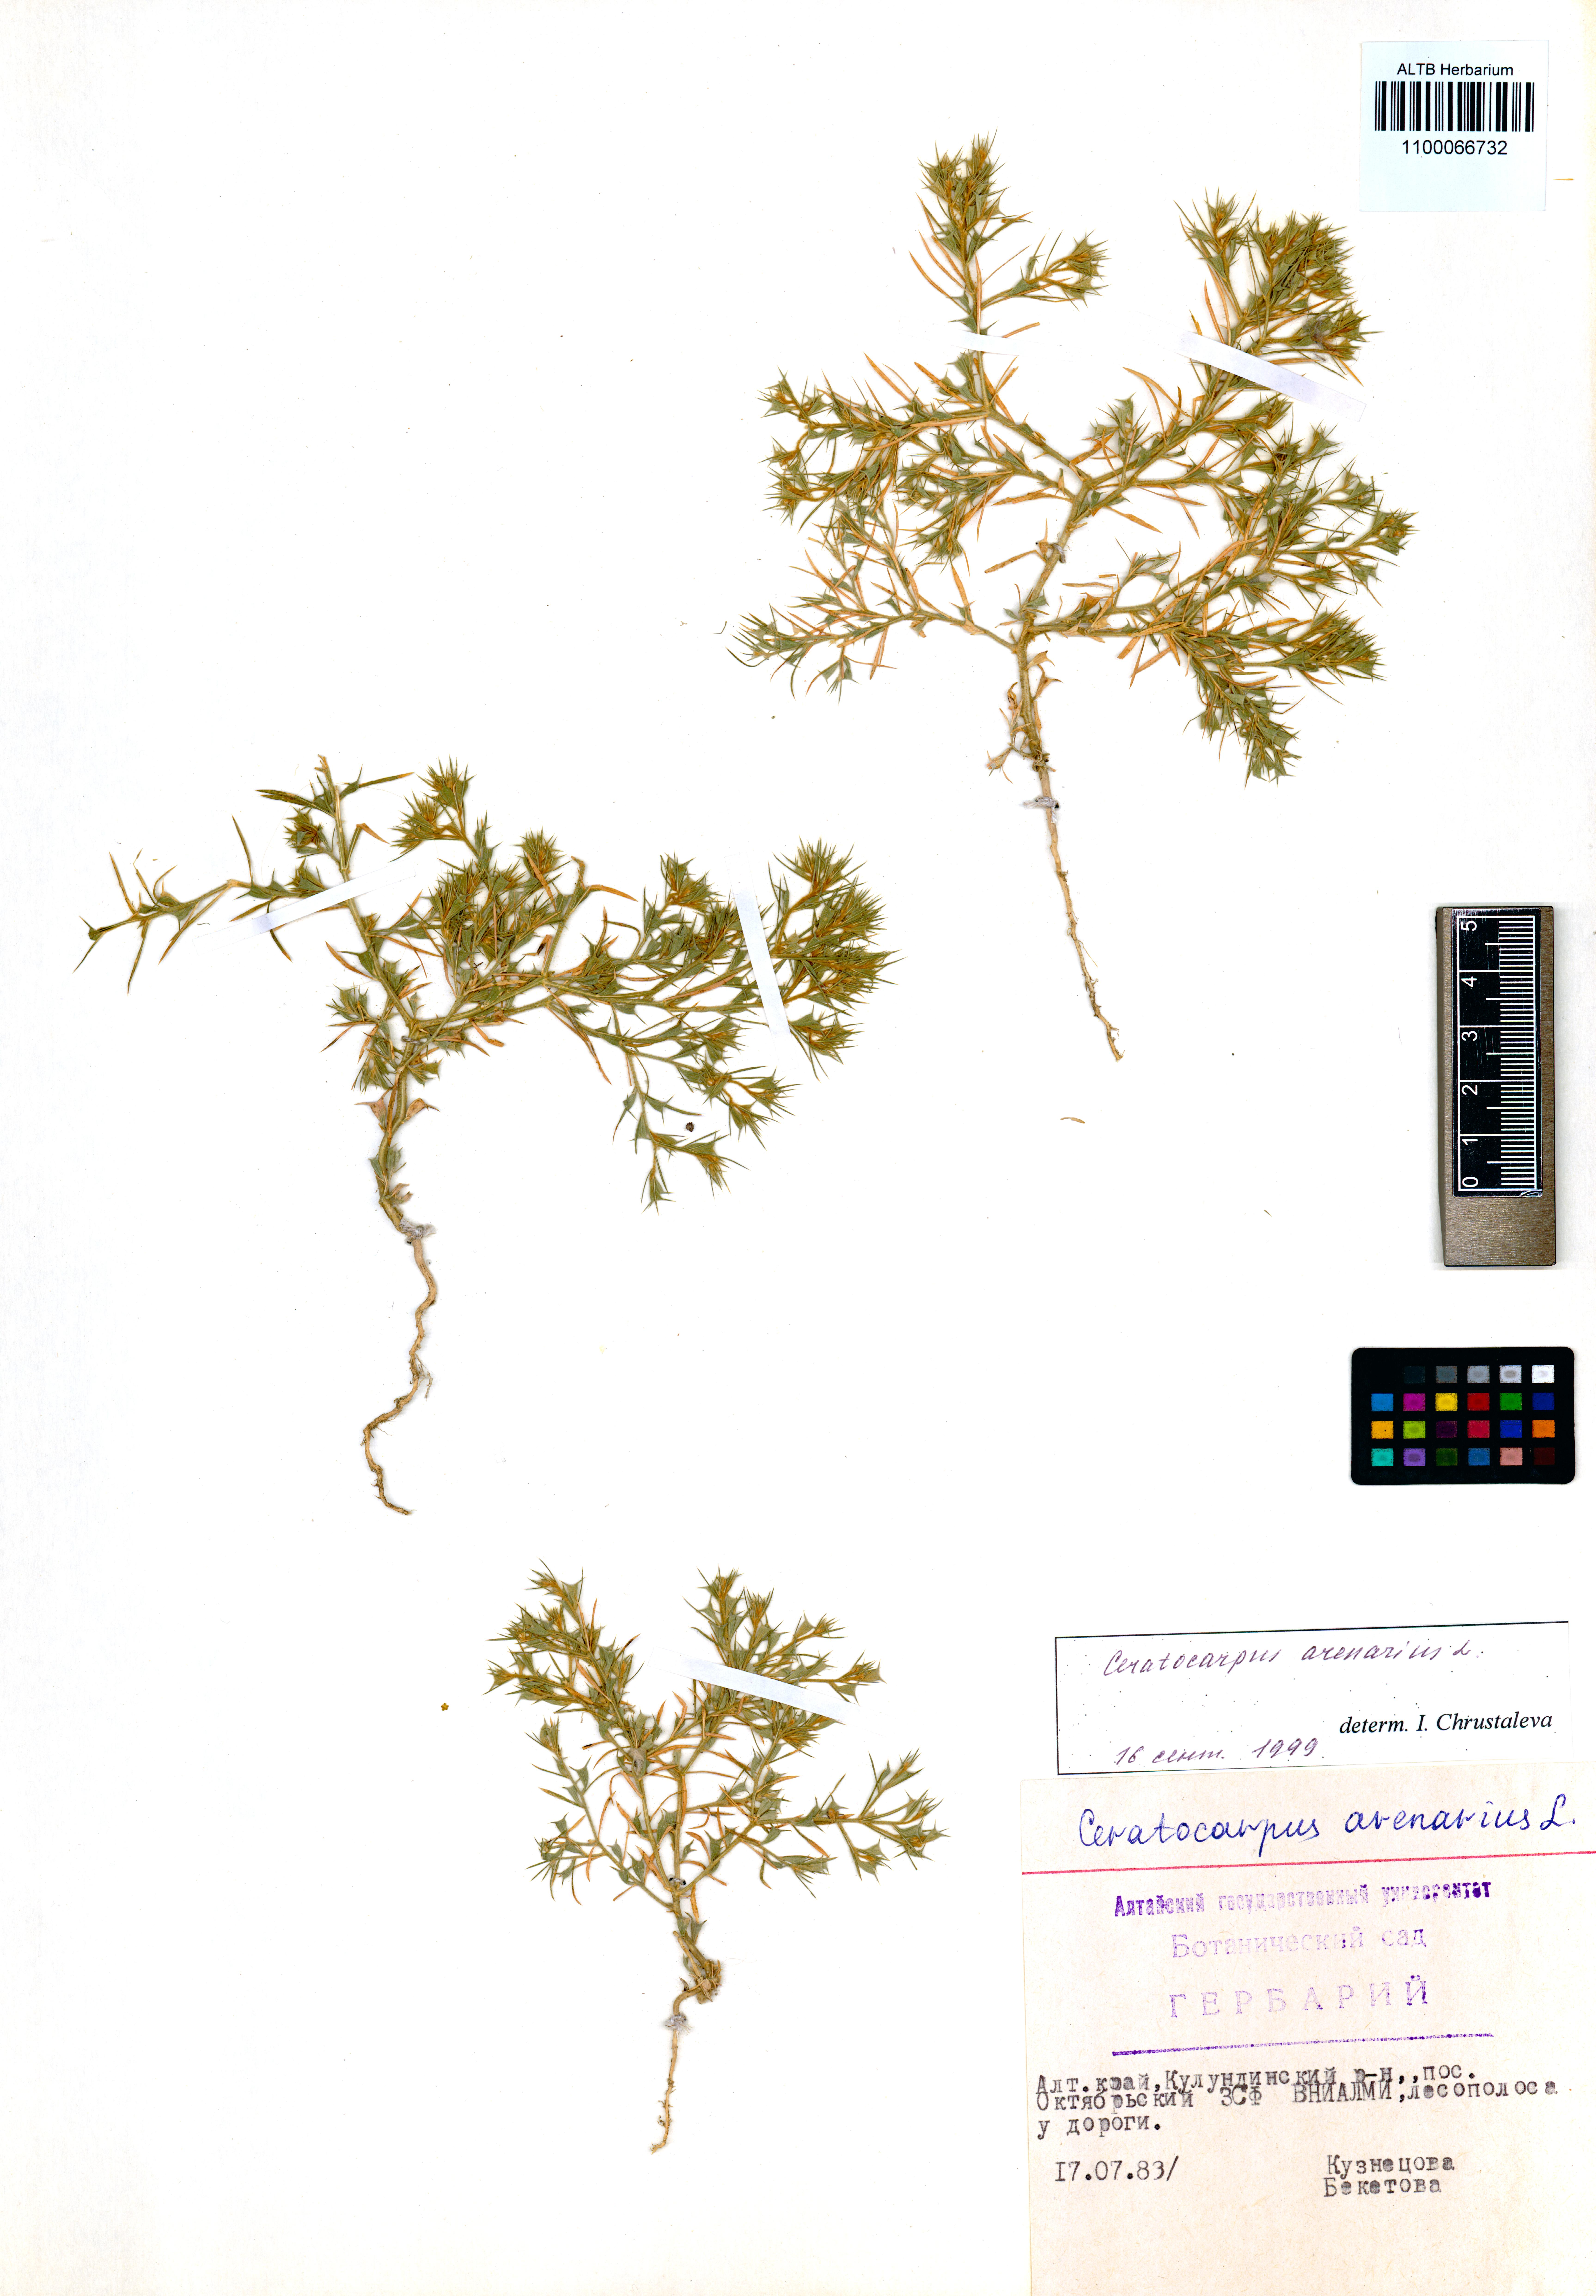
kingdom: Plantae
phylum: Tracheophyta
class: Magnoliopsida
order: Caryophyllales
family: Amaranthaceae
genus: Ceratocarpus
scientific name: Ceratocarpus arenarius
